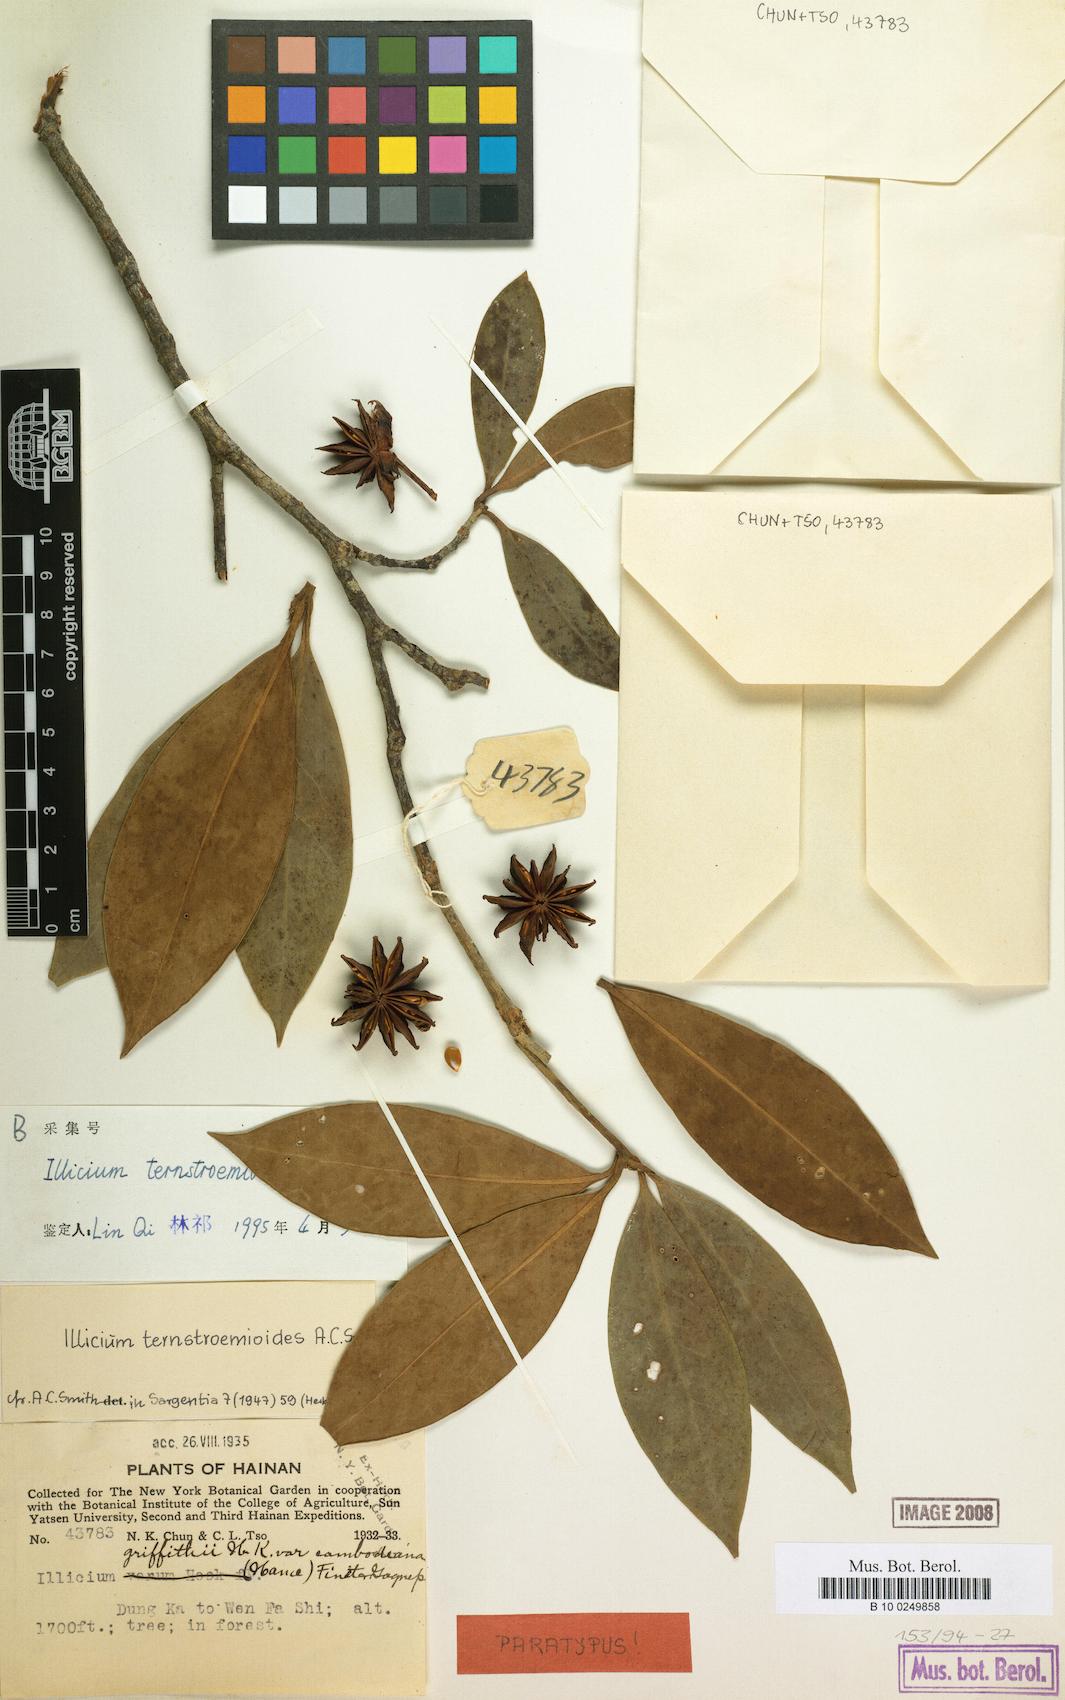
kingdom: Plantae
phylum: Tracheophyta
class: Magnoliopsida
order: Austrobaileyales
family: Schisandraceae
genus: Illicium
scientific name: Illicium ternstroemioides
